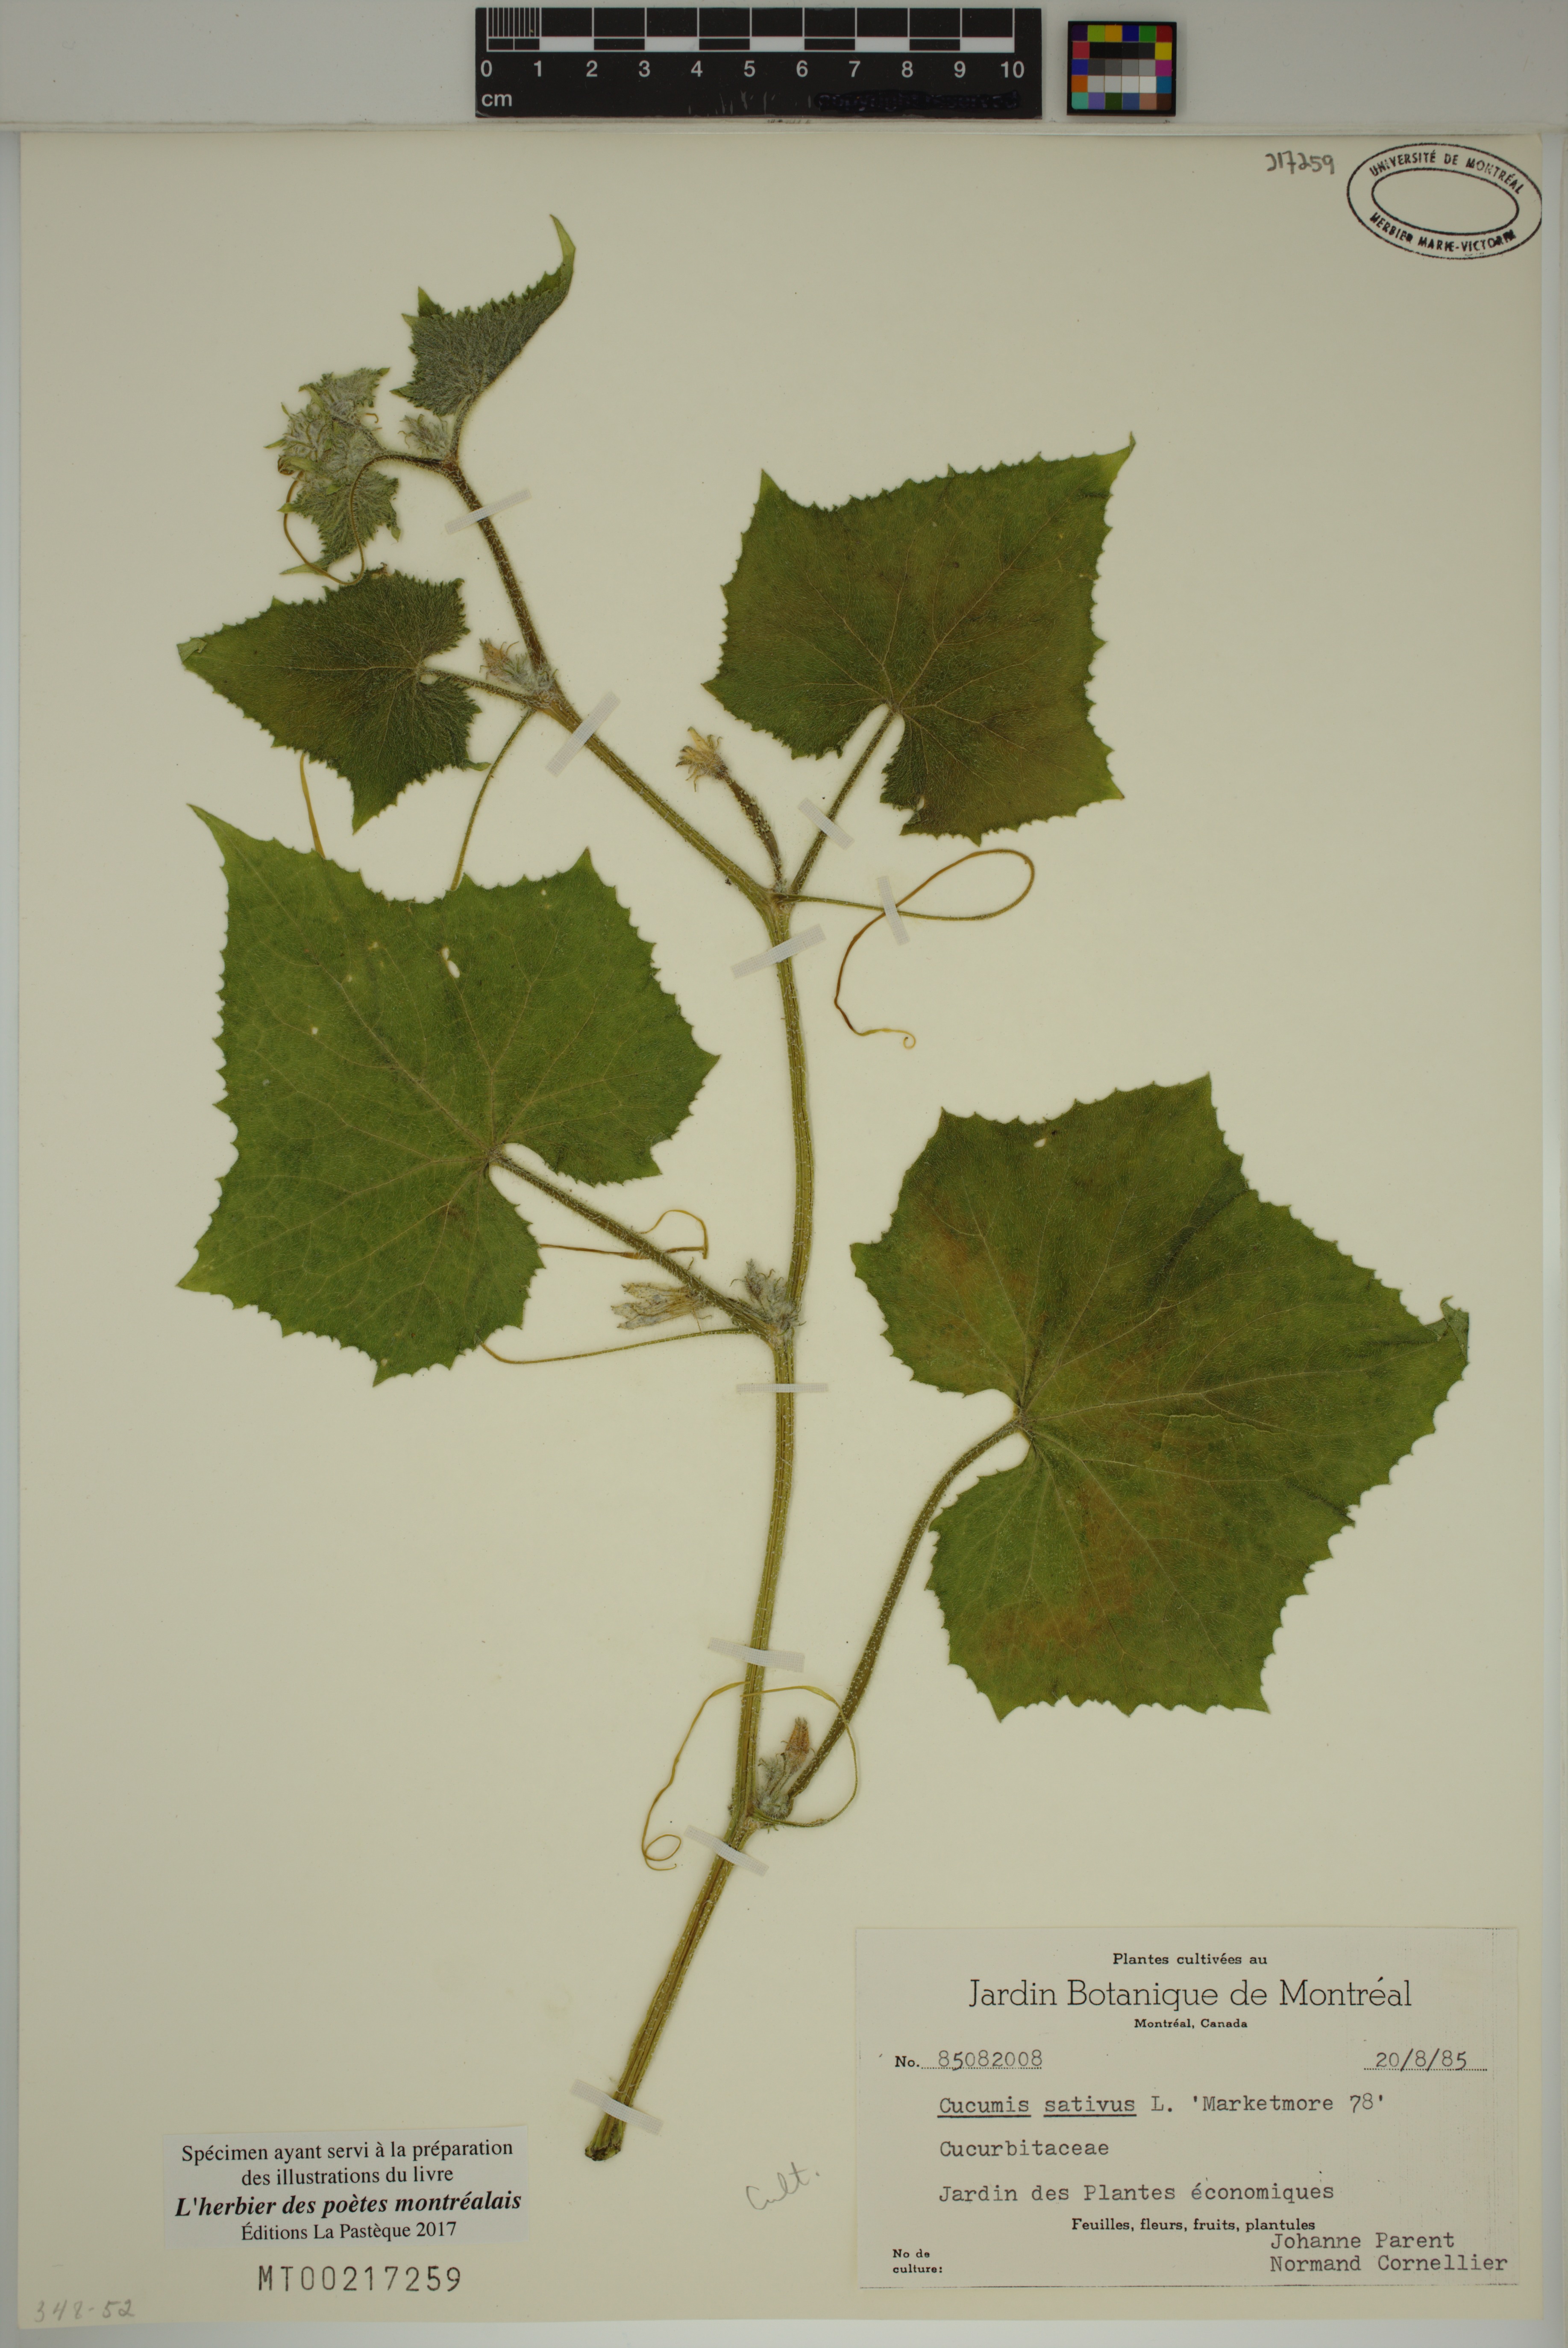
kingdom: Plantae
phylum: Tracheophyta
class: Magnoliopsida
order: Cucurbitales
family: Cucurbitaceae
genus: Cucumis
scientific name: Cucumis sativus
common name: Cucumber
